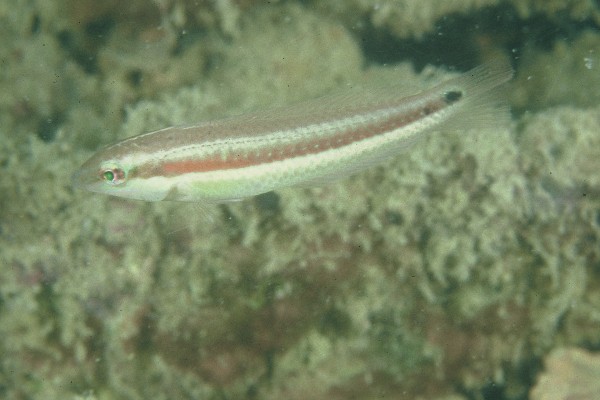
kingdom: Animalia
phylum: Chordata
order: Perciformes
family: Labridae
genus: Halichoeres
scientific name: Halichoeres stigmaticus
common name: U-spot wrasse
